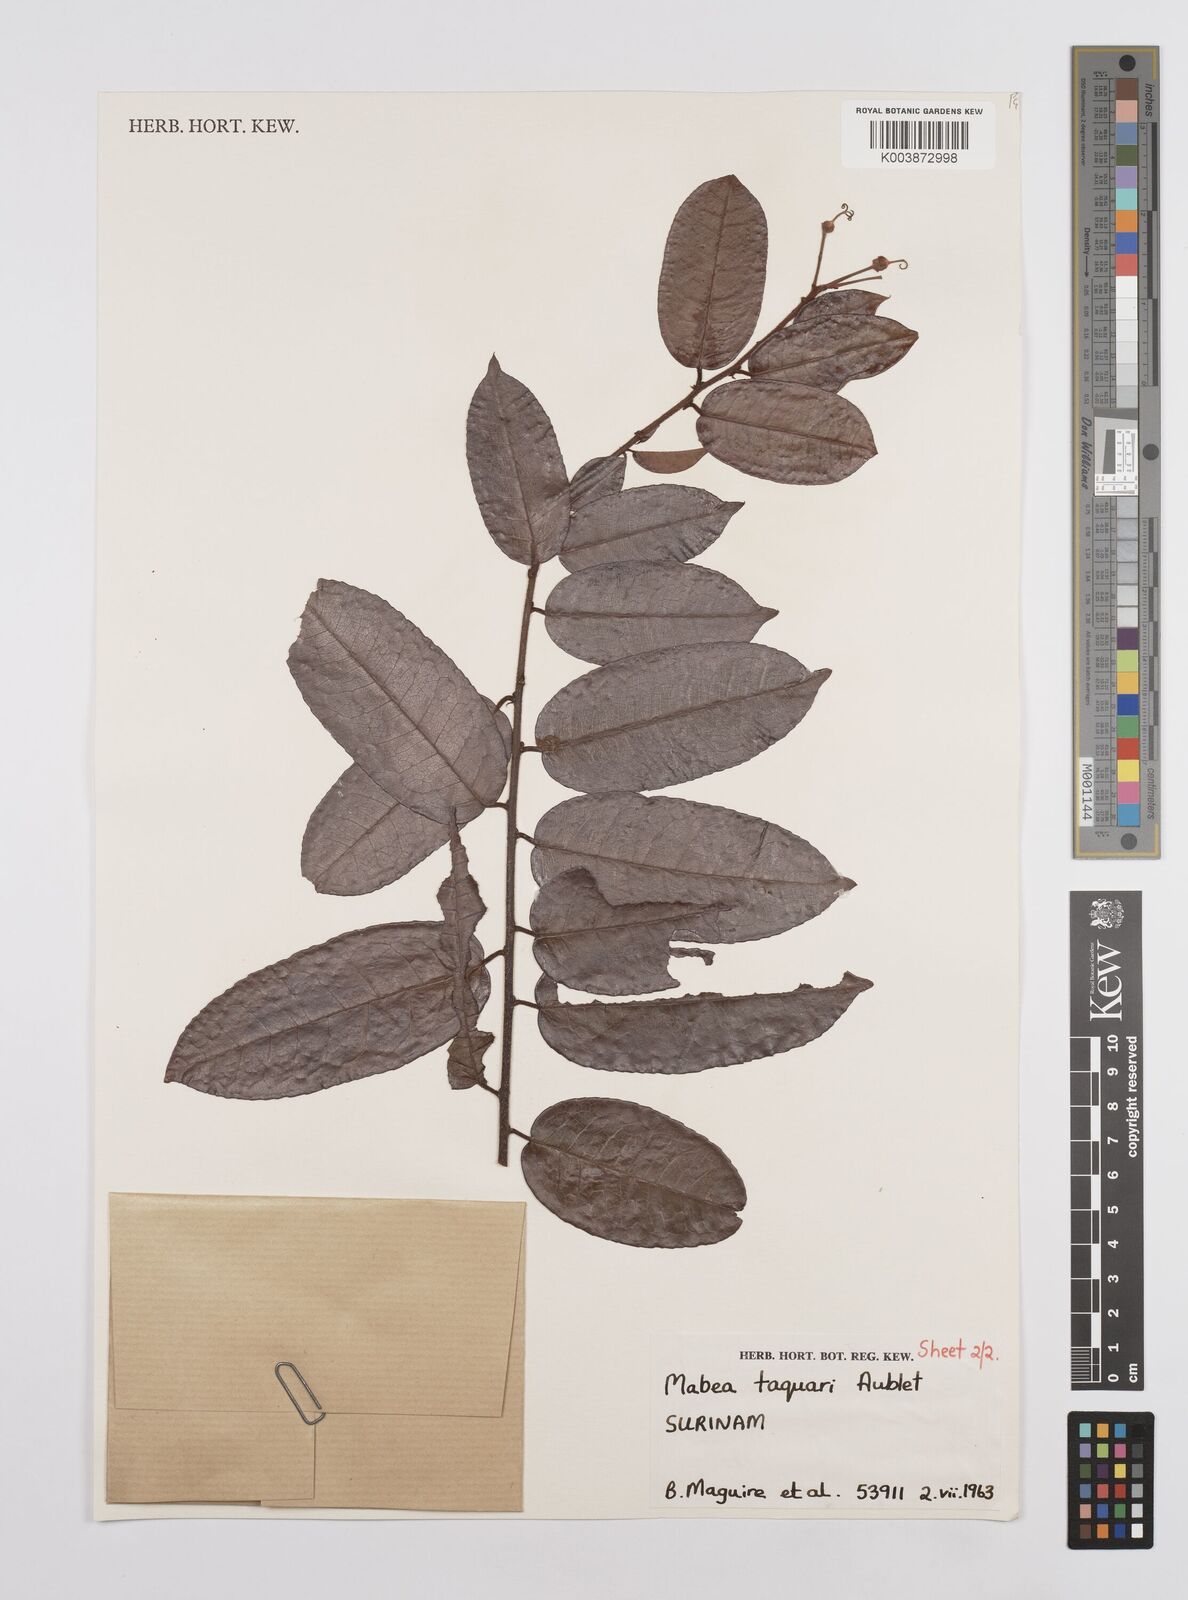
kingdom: Plantae
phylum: Tracheophyta
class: Magnoliopsida
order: Malpighiales
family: Euphorbiaceae
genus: Mabea
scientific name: Mabea taquari
